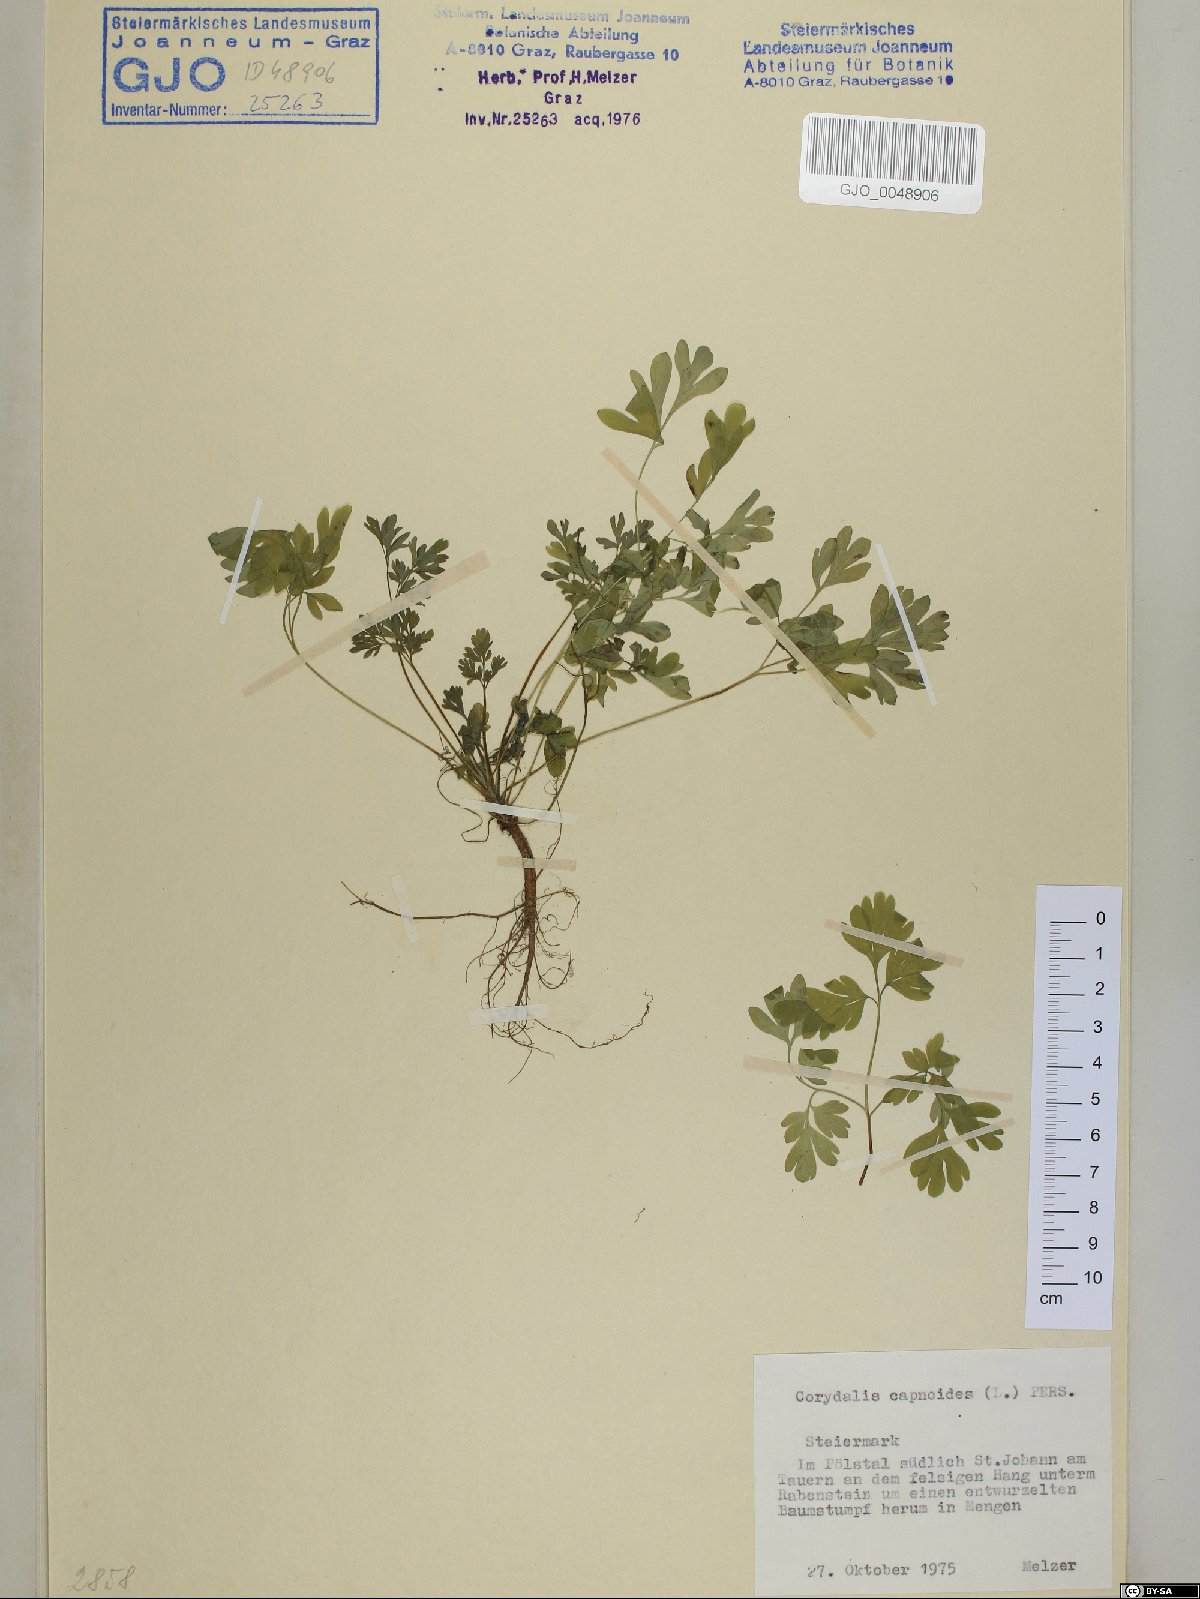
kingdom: Plantae
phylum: Tracheophyta
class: Magnoliopsida
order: Ranunculales
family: Papaveraceae
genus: Corydalis
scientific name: Corydalis capnoides
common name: Beaked corydalis
